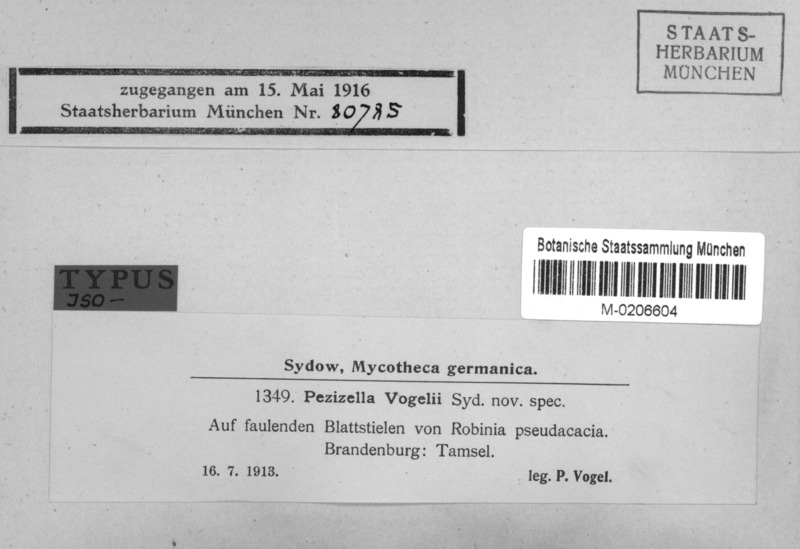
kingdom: Fungi
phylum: Ascomycota
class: Leotiomycetes
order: Helotiales
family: Pezizellaceae
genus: Pezizella
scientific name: Pezizella vogelii
